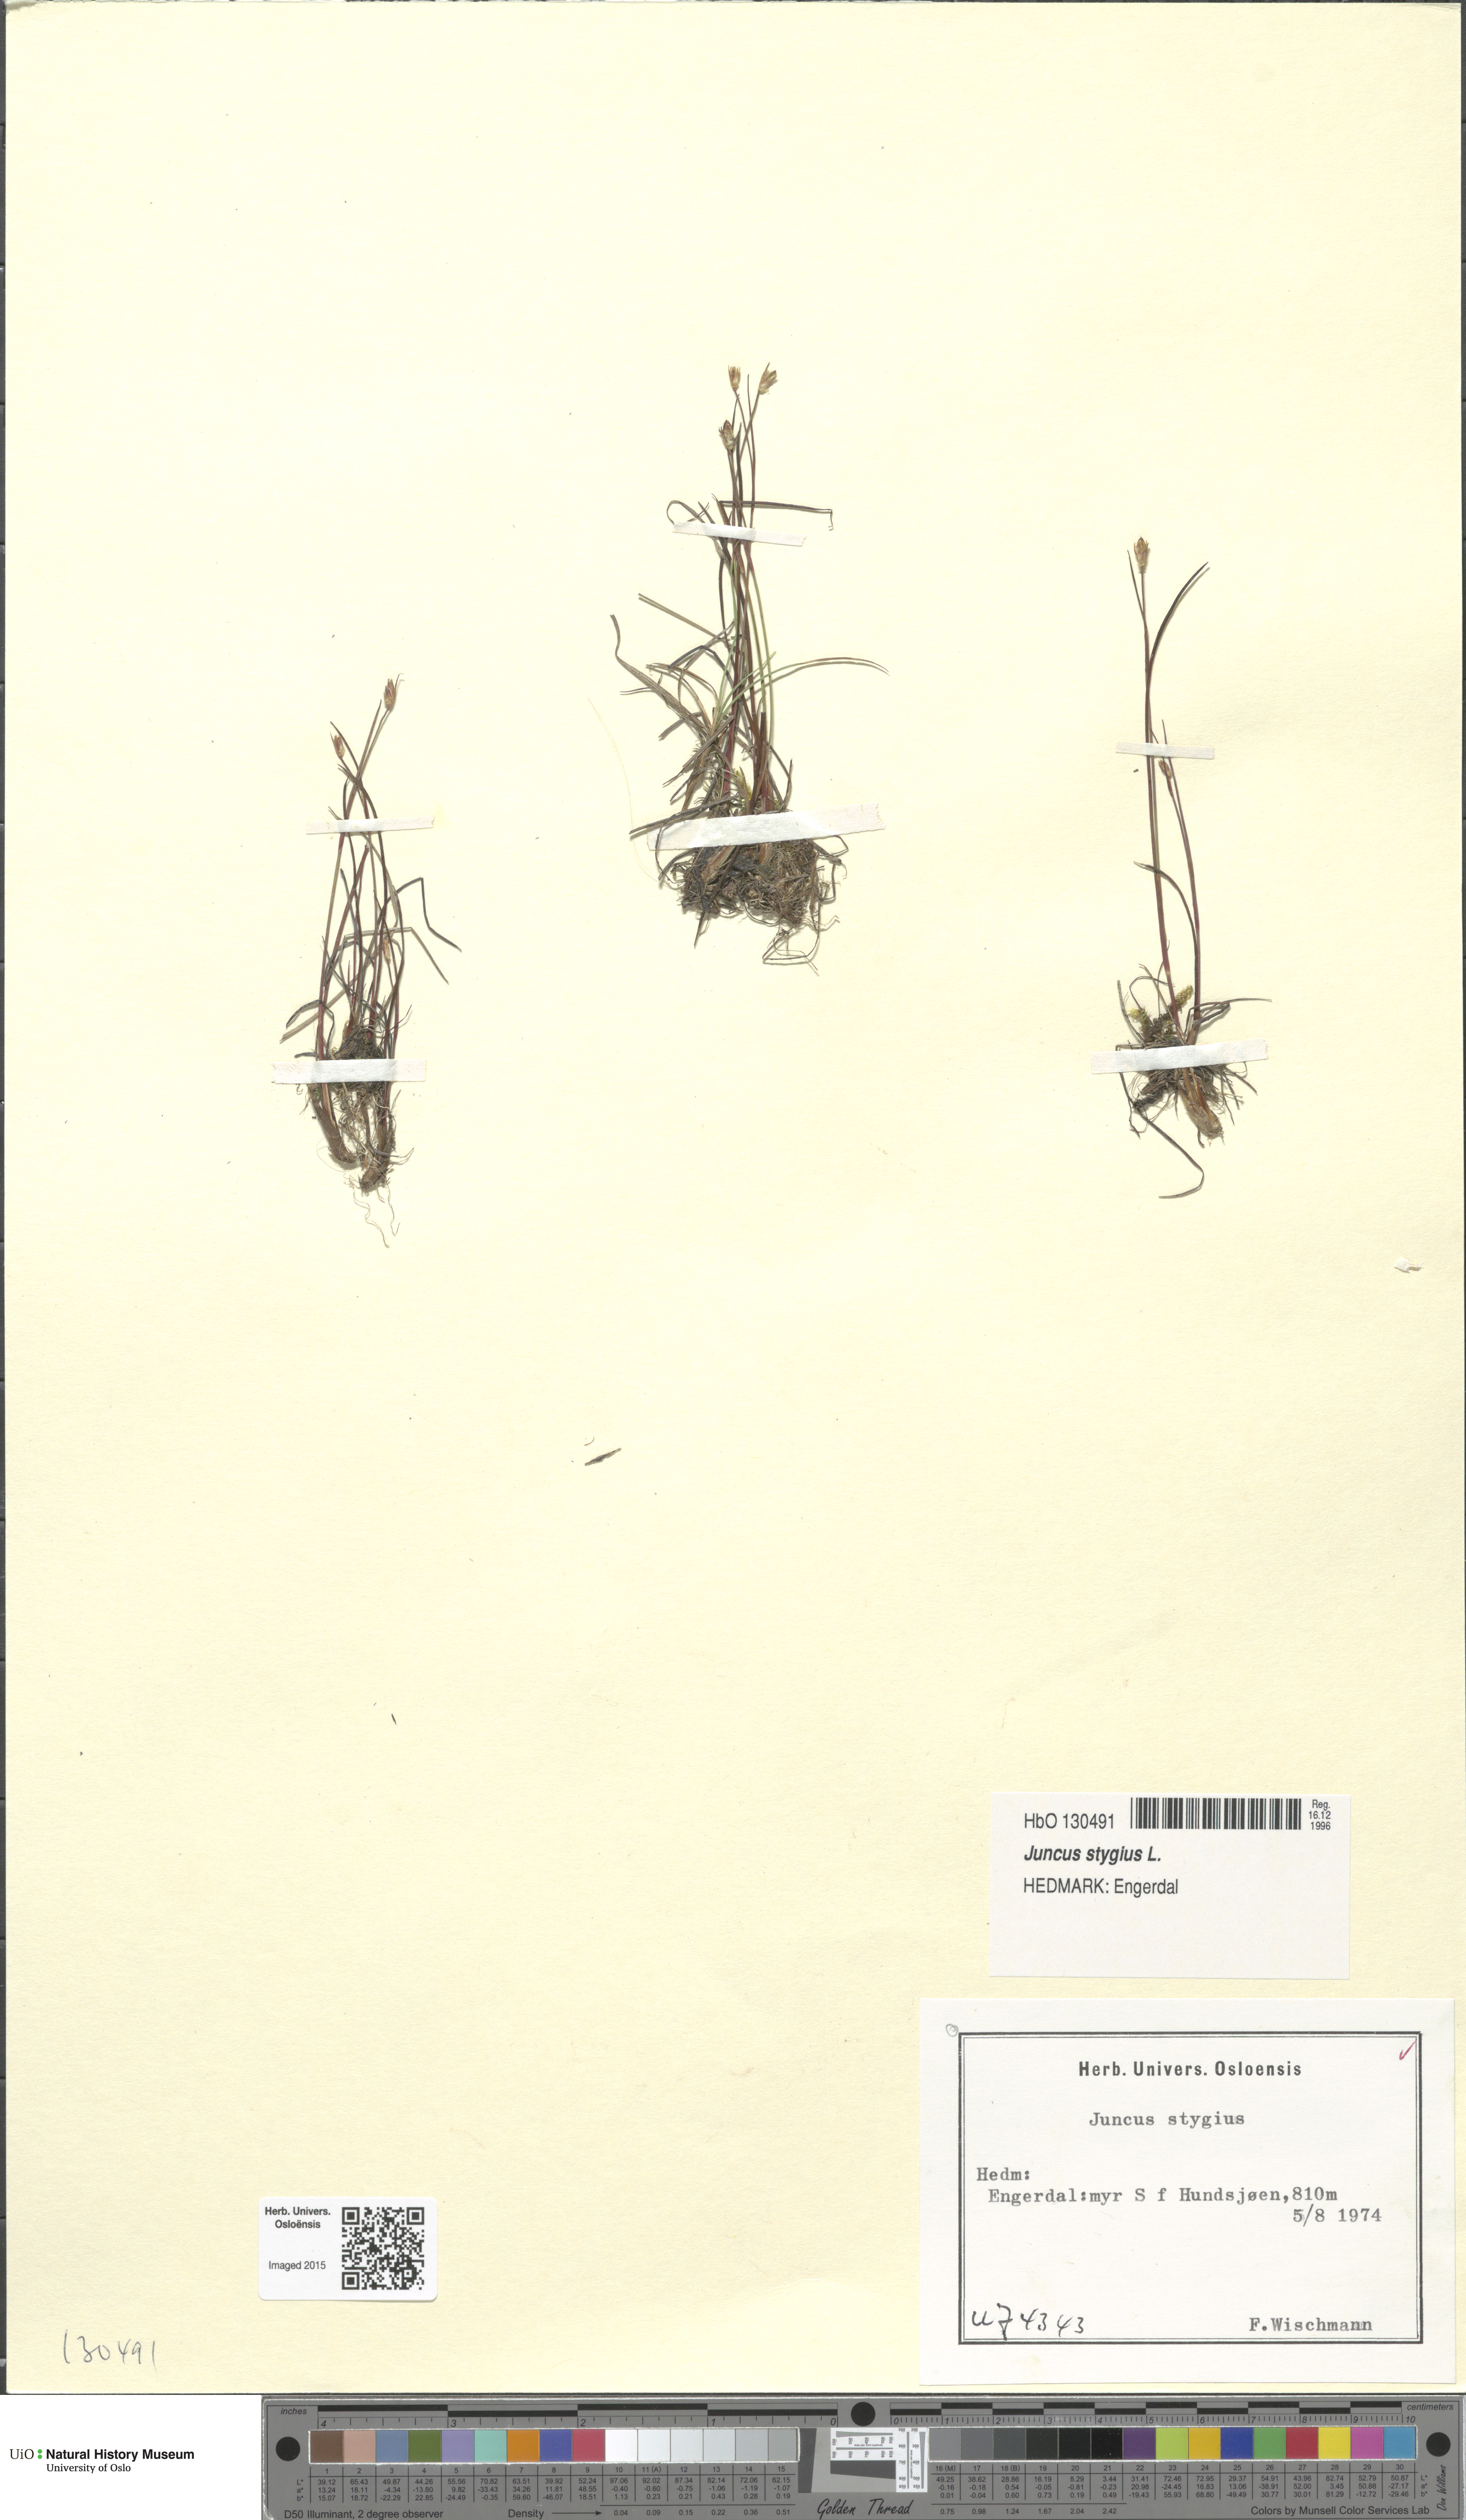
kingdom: Plantae
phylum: Tracheophyta
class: Liliopsida
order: Poales
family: Juncaceae
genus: Juncus
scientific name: Juncus stygius
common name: Bog rush
